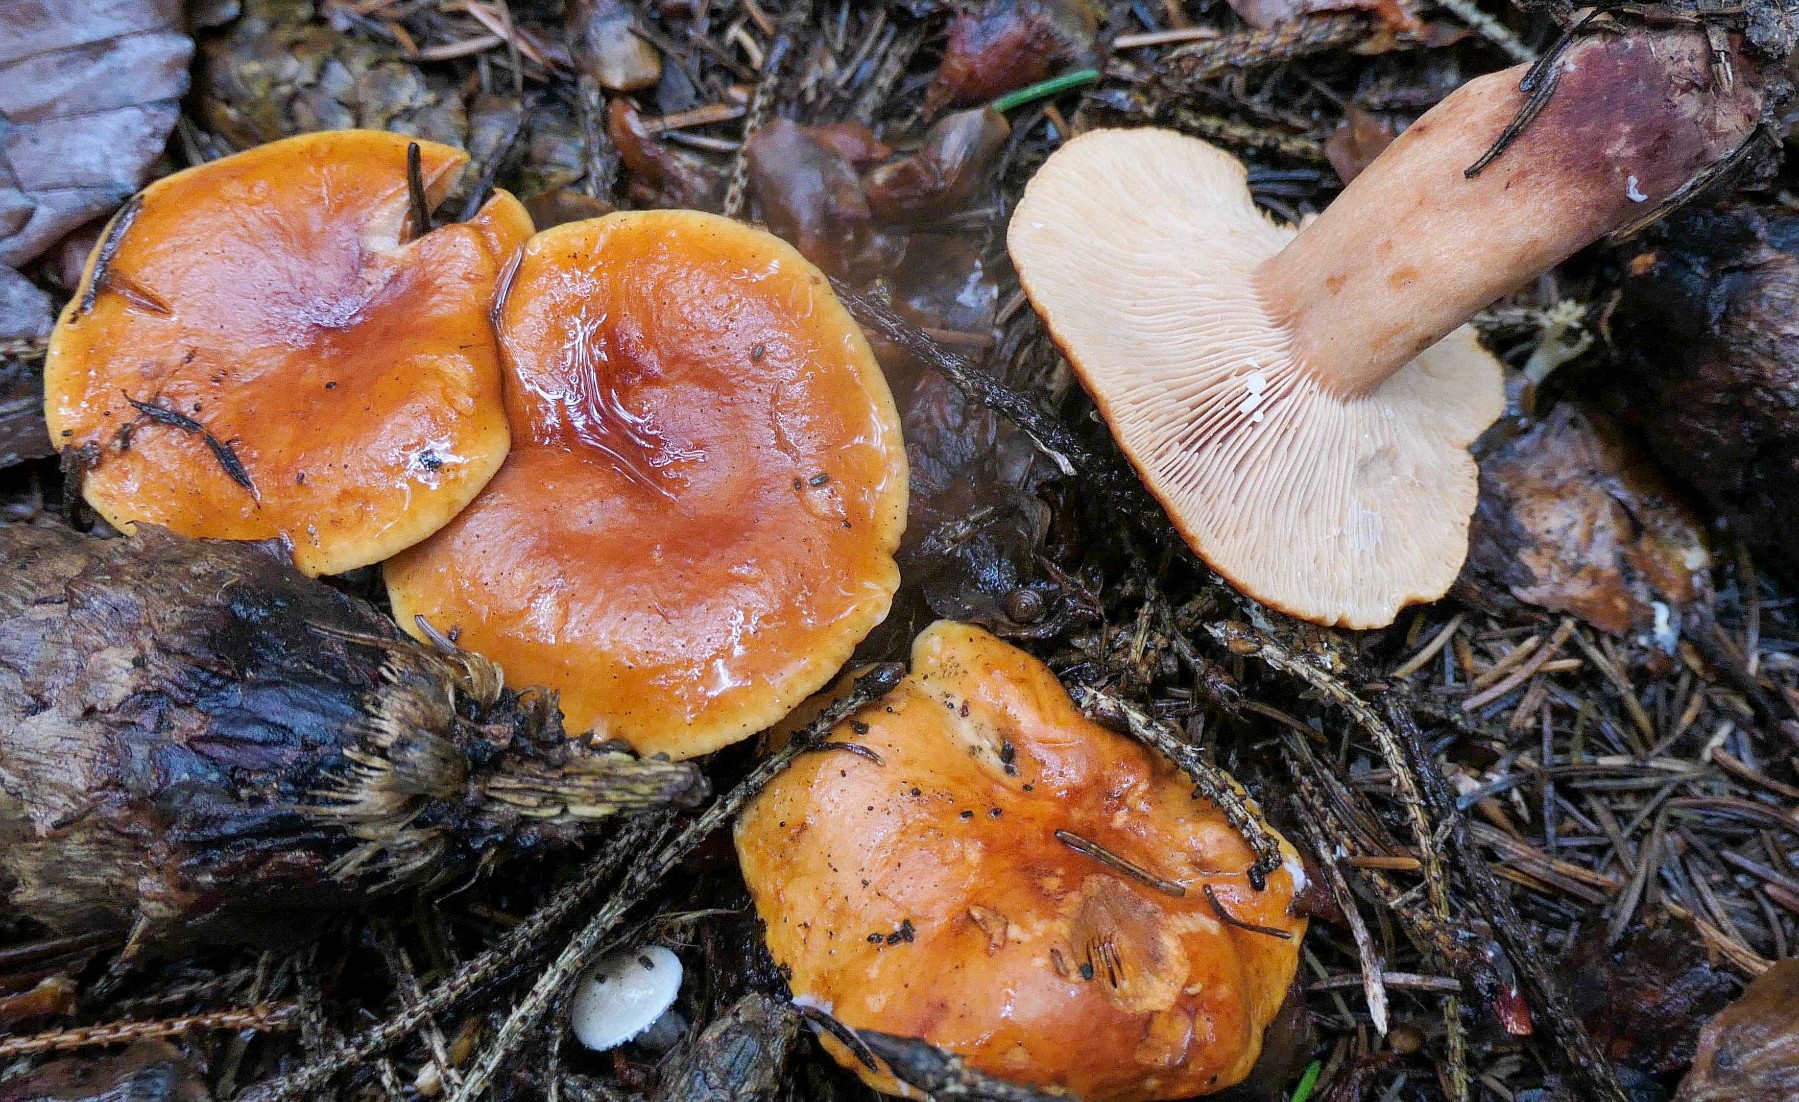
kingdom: Fungi
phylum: Basidiomycota
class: Agaricomycetes
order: Russulales
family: Russulaceae
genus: Lactarius
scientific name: Lactarius fulvissimus
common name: ræve-mælkehat
